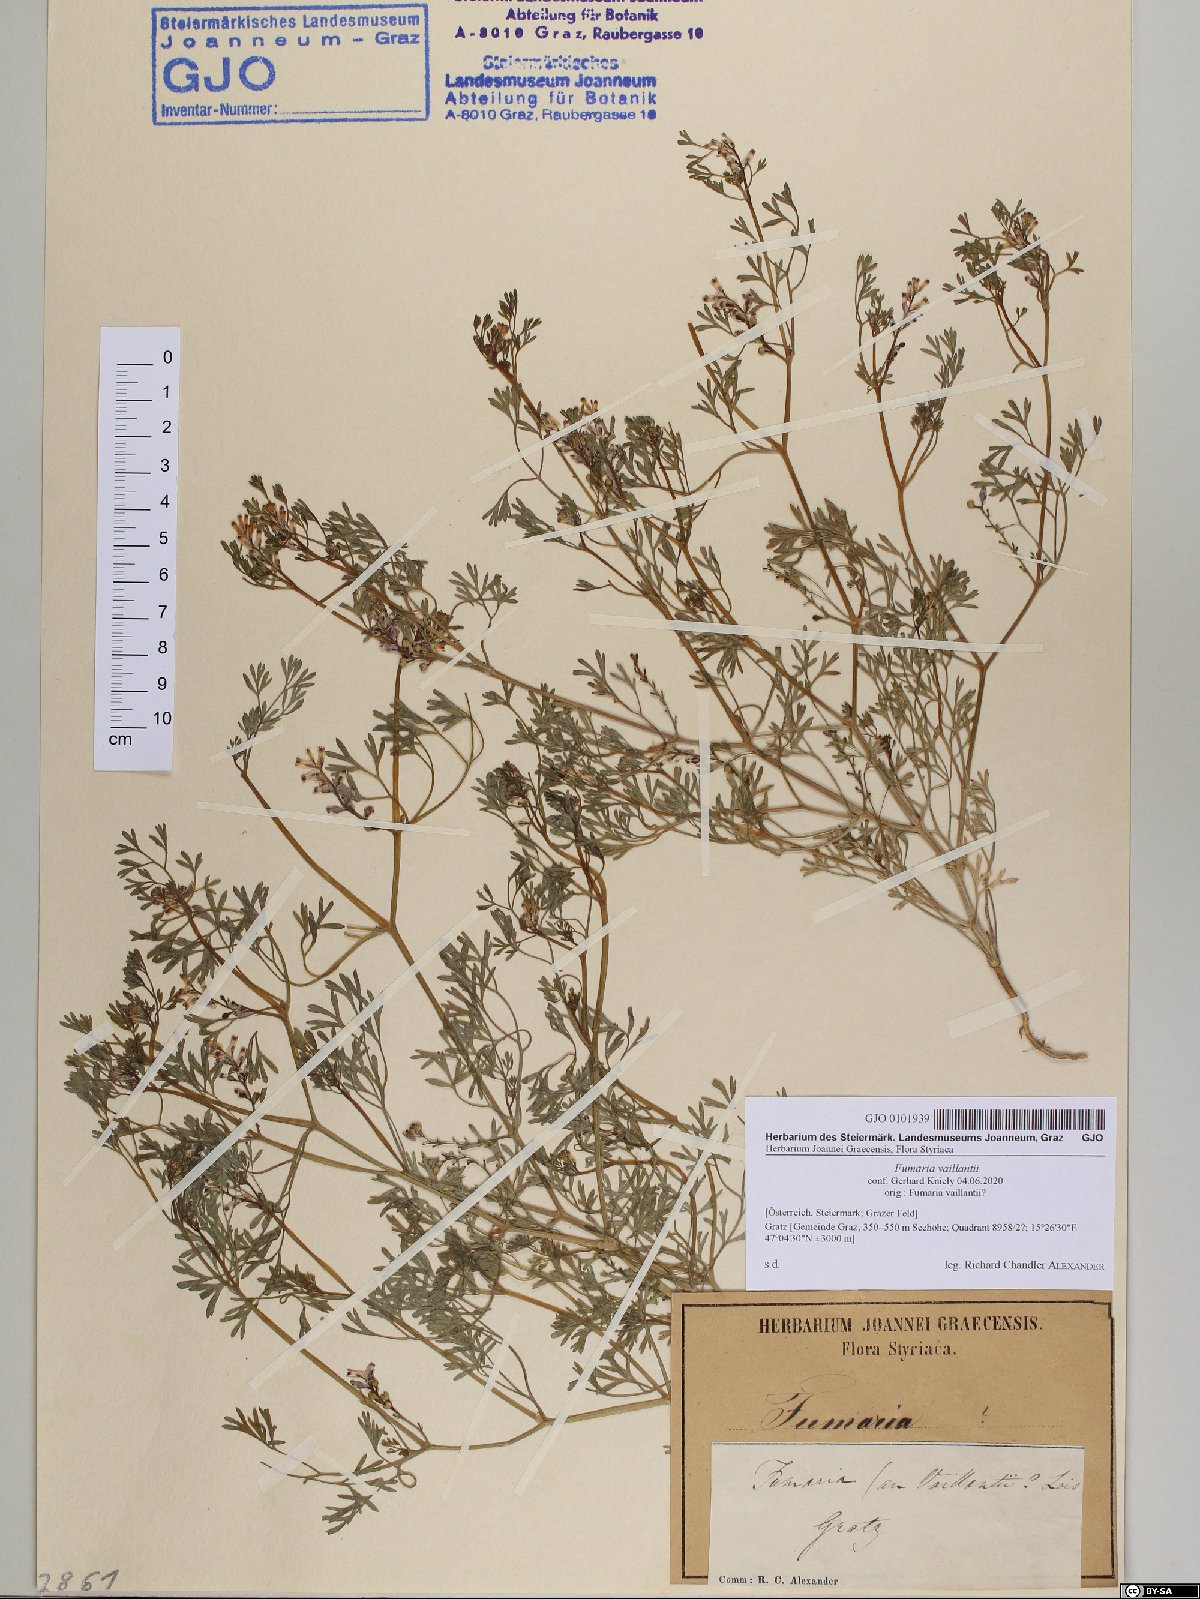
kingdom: Plantae
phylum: Tracheophyta
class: Magnoliopsida
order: Ranunculales
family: Papaveraceae
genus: Fumaria
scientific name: Fumaria vaillantii
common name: Few-flowered fumitory
